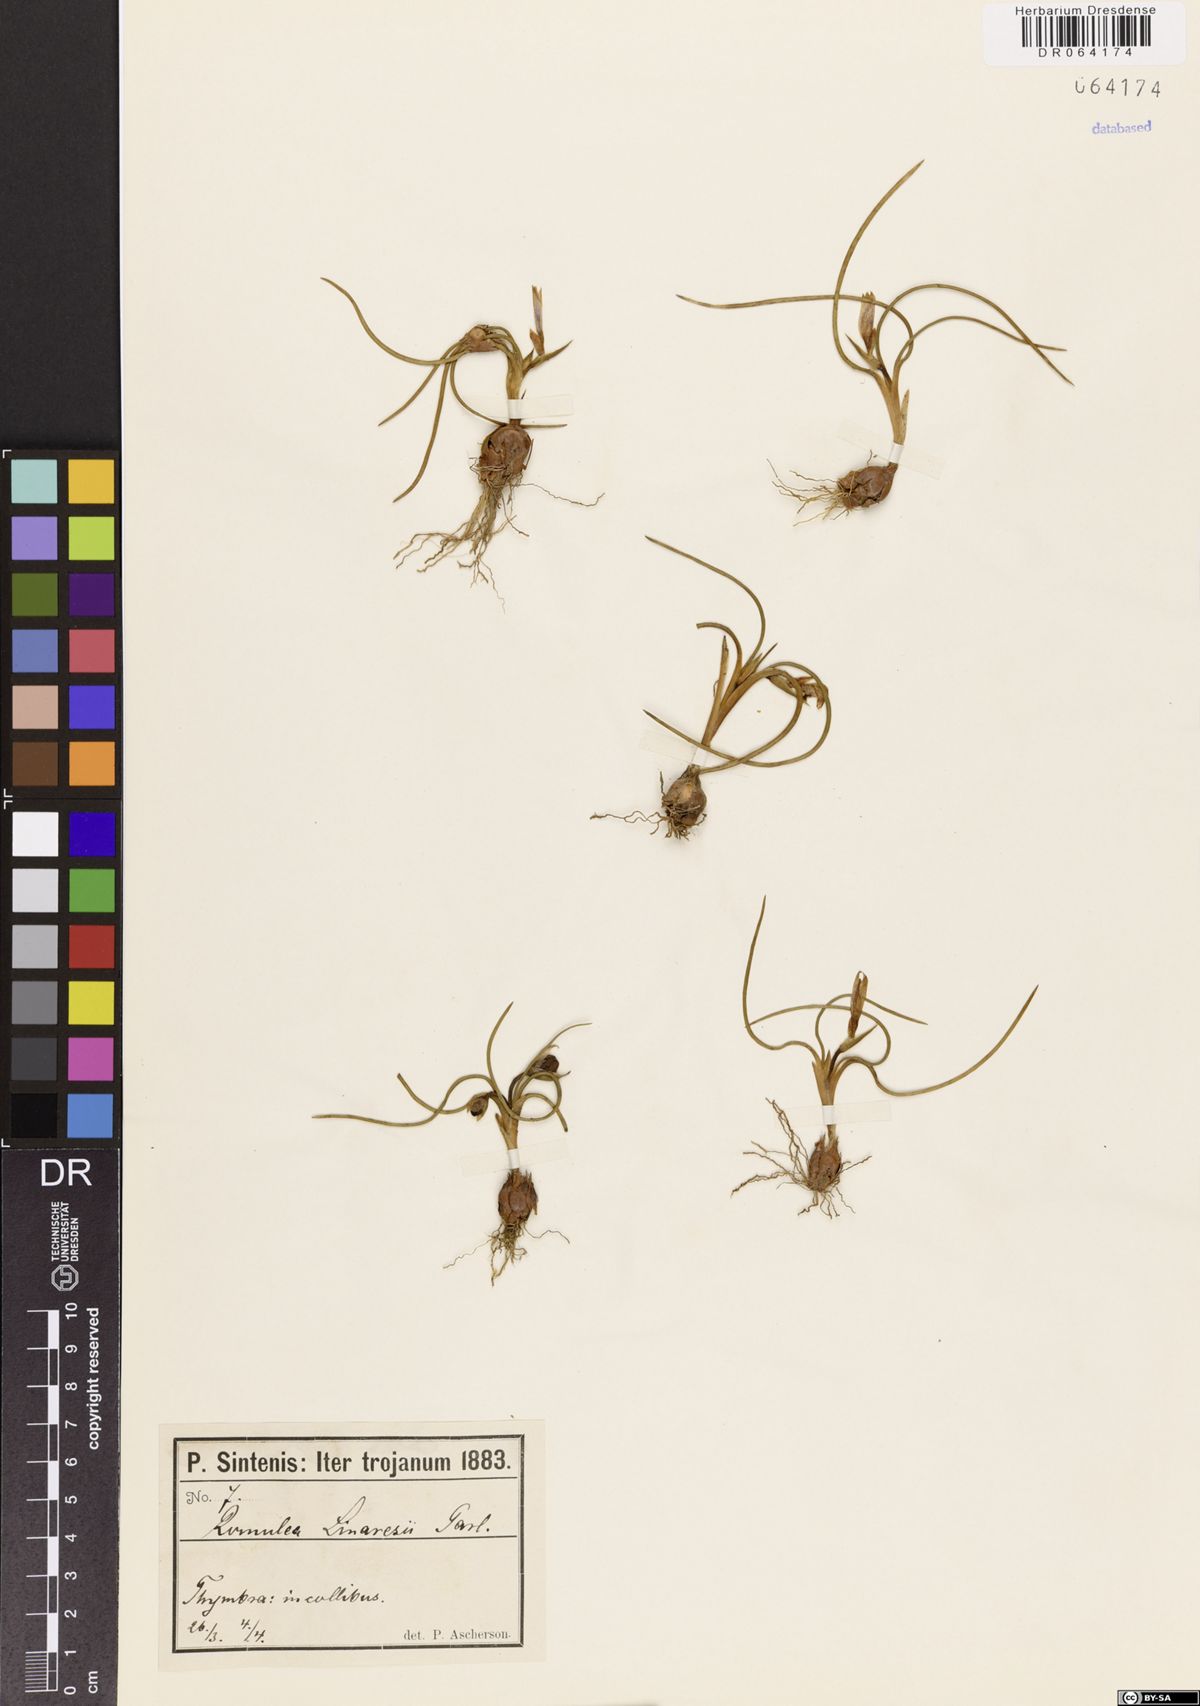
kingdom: Plantae
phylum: Tracheophyta
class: Liliopsida
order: Asparagales
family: Iridaceae
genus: Romulea
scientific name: Romulea linaresii
